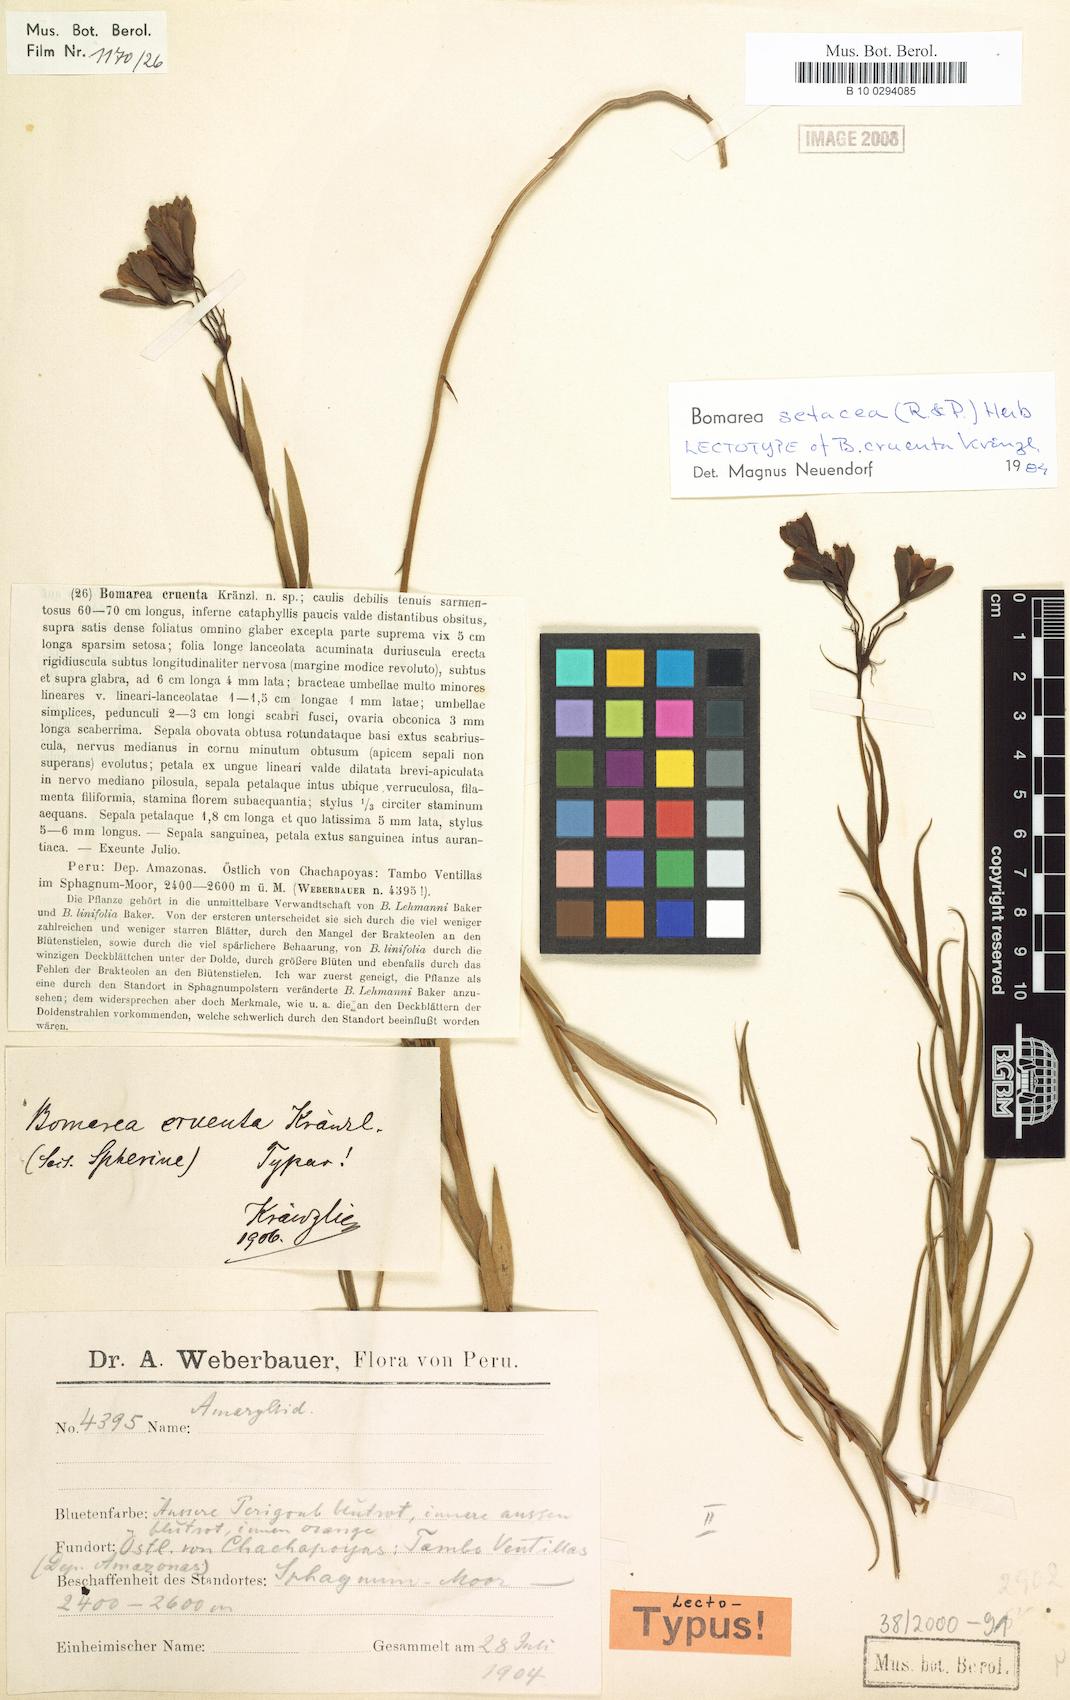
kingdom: Plantae
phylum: Tracheophyta
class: Liliopsida
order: Liliales
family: Alstroemeriaceae
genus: Bomarea
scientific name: Bomarea setacea
